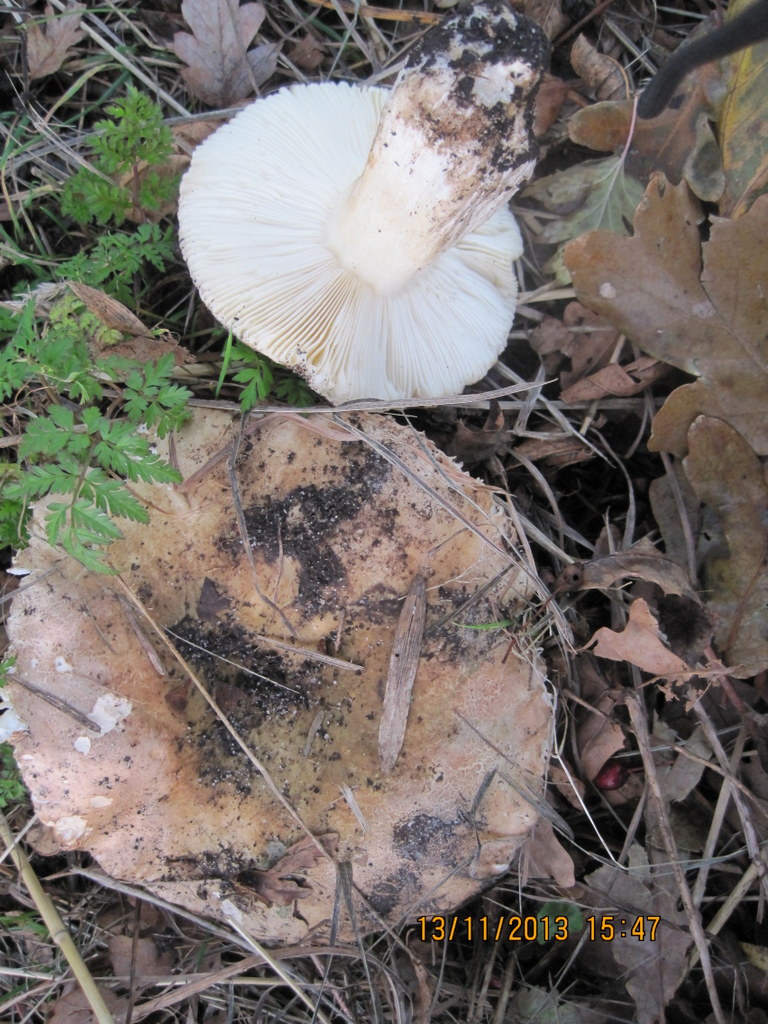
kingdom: Fungi
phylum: Basidiomycota
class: Agaricomycetes
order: Russulales
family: Russulaceae
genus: Russula
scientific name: Russula graveolens
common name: bugtet skørhat
